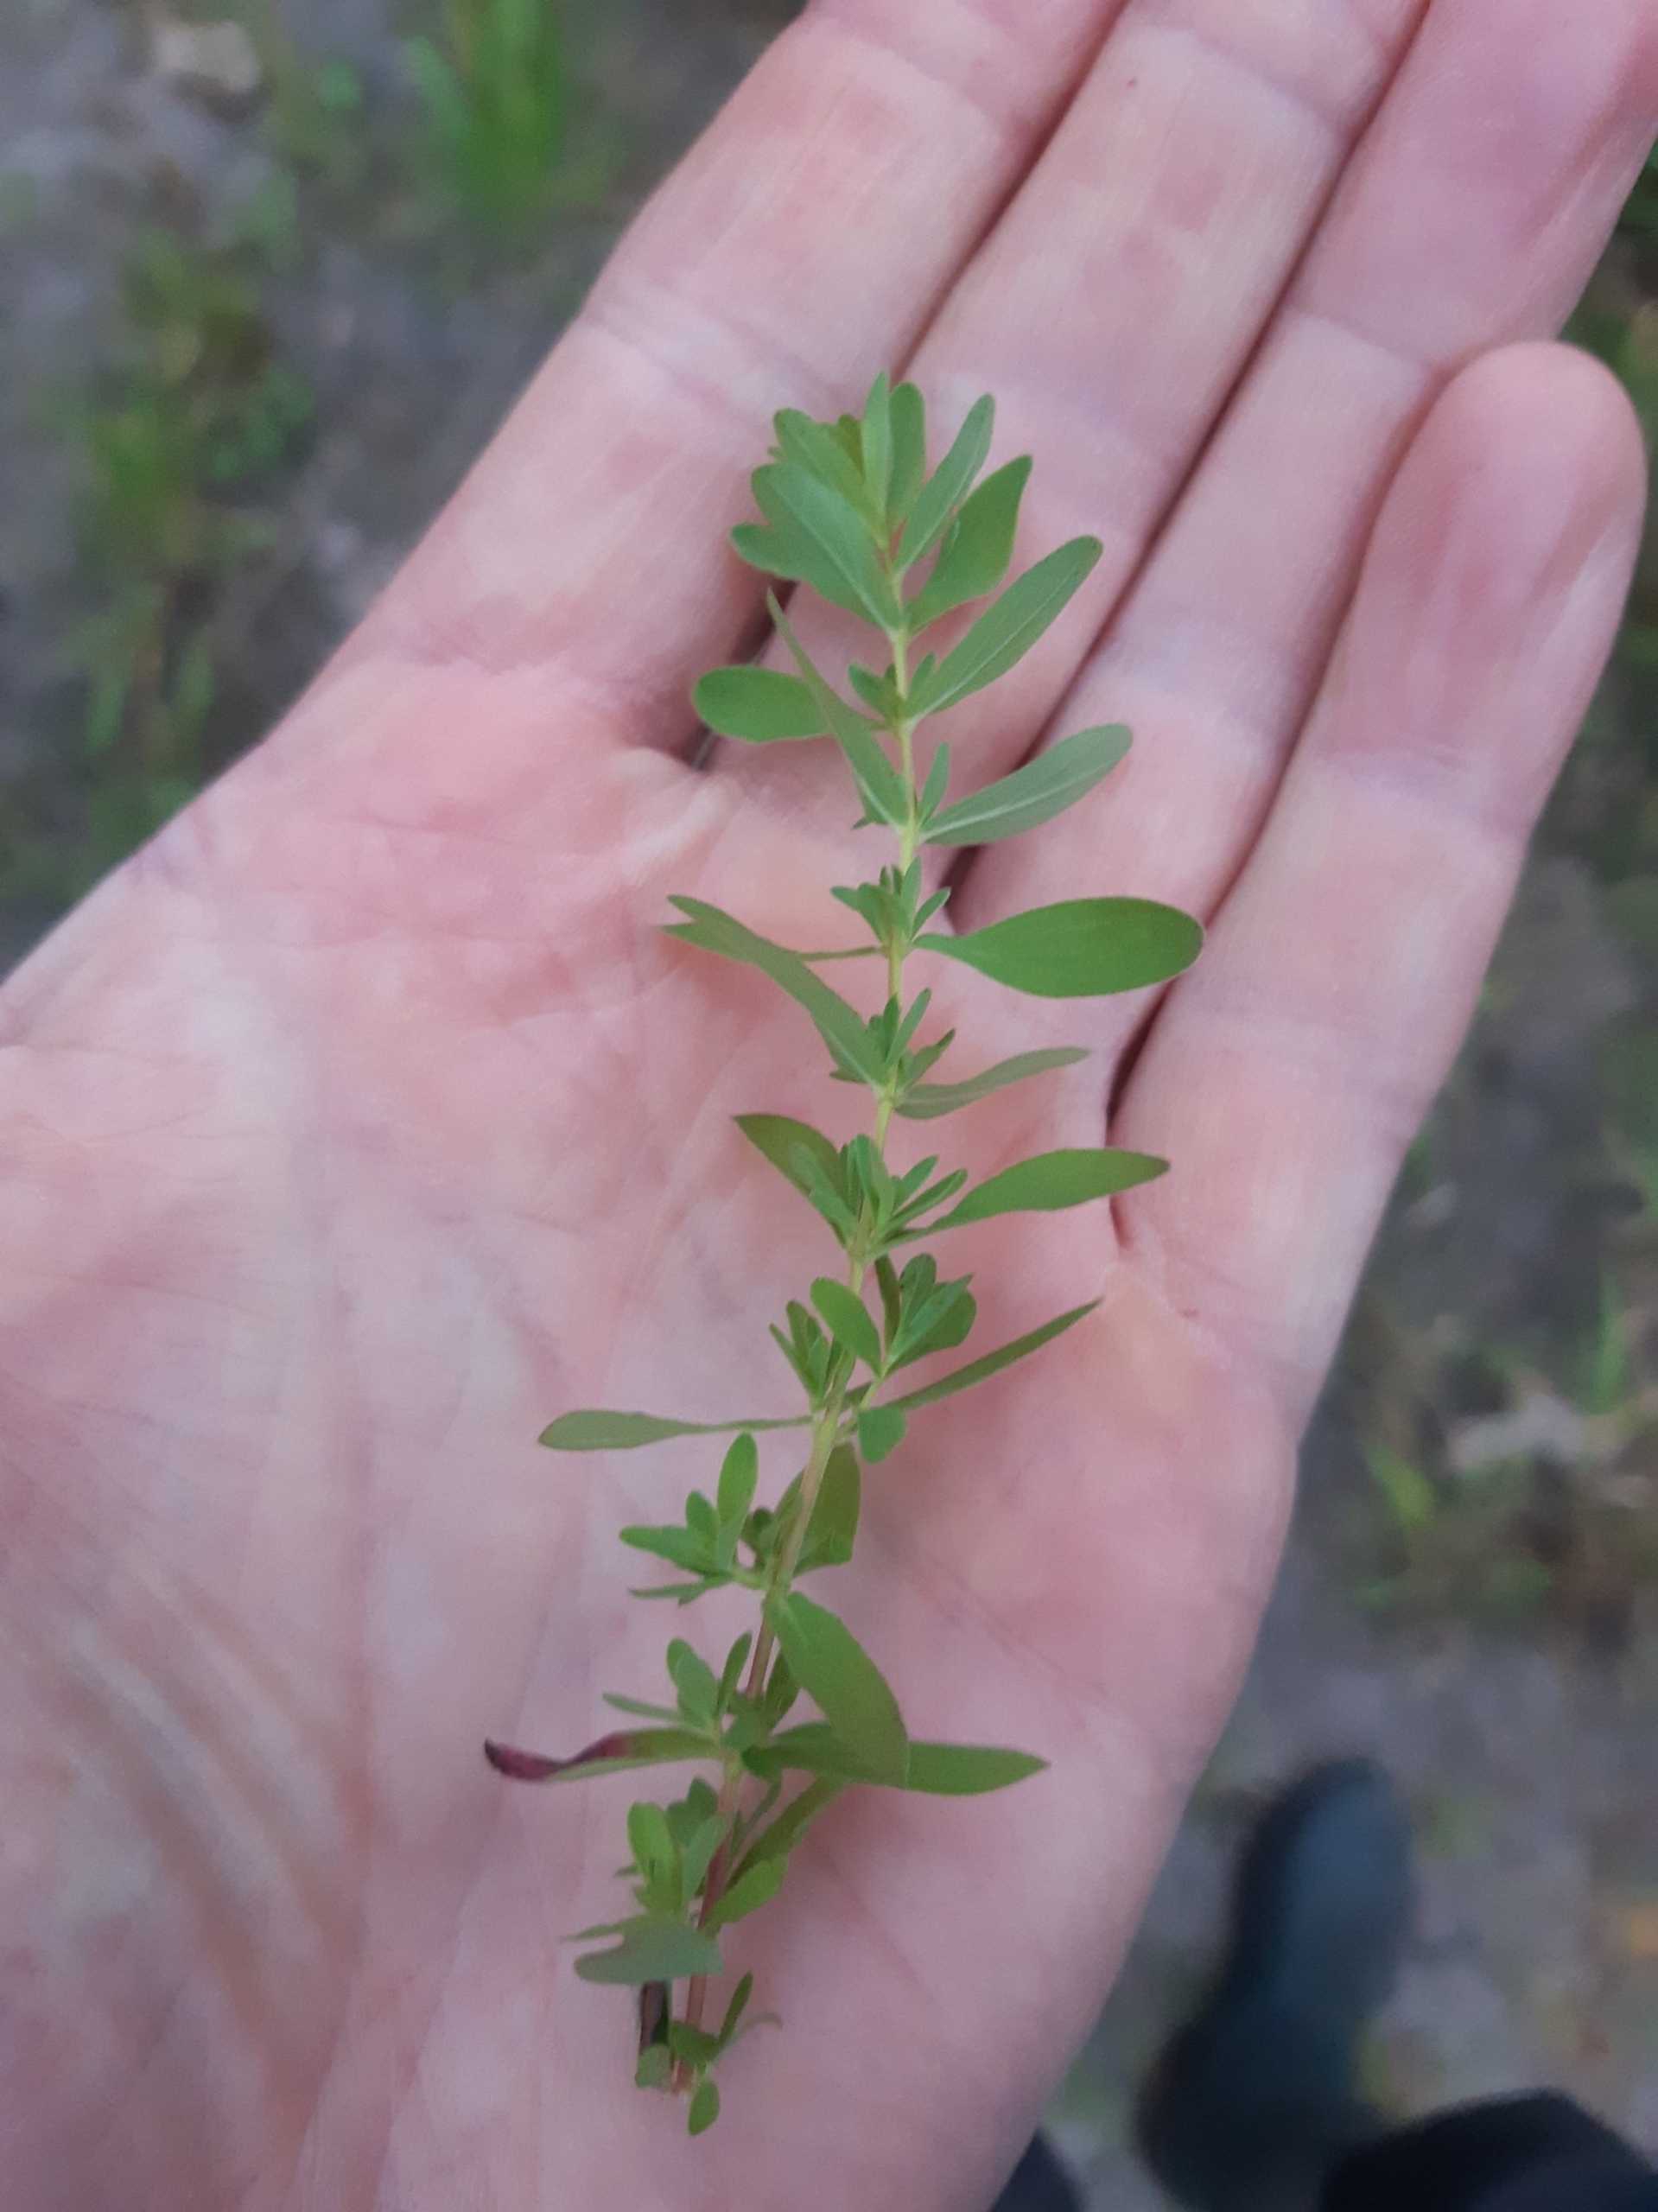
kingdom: Plantae
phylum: Tracheophyta
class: Magnoliopsida
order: Malpighiales
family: Hypericaceae
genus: Hypericum
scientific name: Hypericum perforatum
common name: Prikbladet perikon
